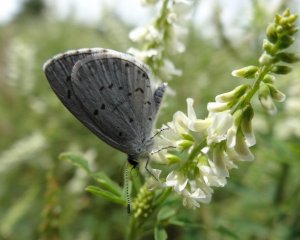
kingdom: Animalia
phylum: Arthropoda
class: Insecta
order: Lepidoptera
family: Lycaenidae
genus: Cyaniris
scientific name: Cyaniris neglecta
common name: Summer Azure
